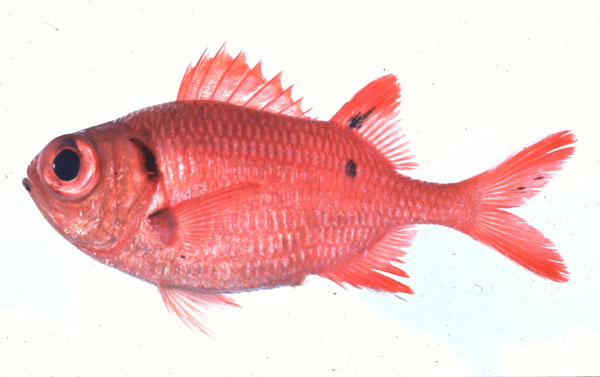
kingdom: Animalia
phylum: Chordata
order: Beryciformes
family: Holocentridae
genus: Myripristis
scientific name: Myripristis botche
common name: Blacktip soldierfish
